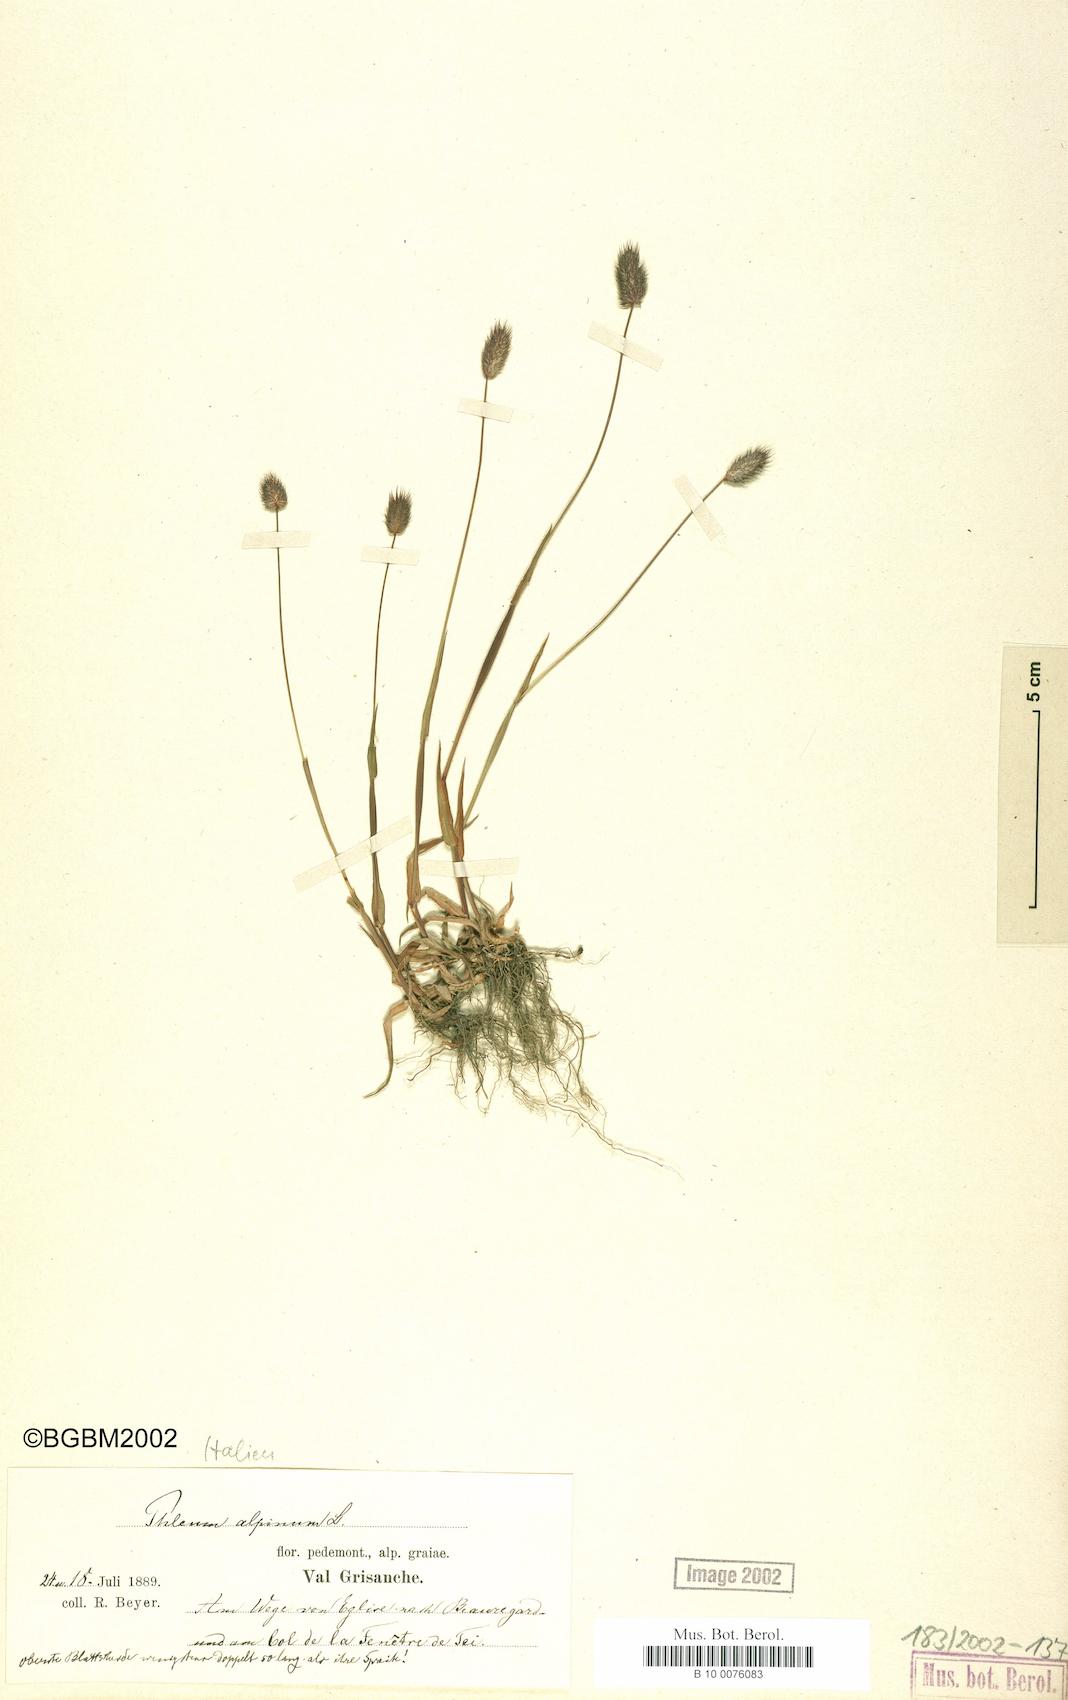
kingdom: Plantae
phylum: Tracheophyta
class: Liliopsida
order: Poales
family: Poaceae
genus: Phleum
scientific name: Phleum alpinum
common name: Alpine cat's-tail
